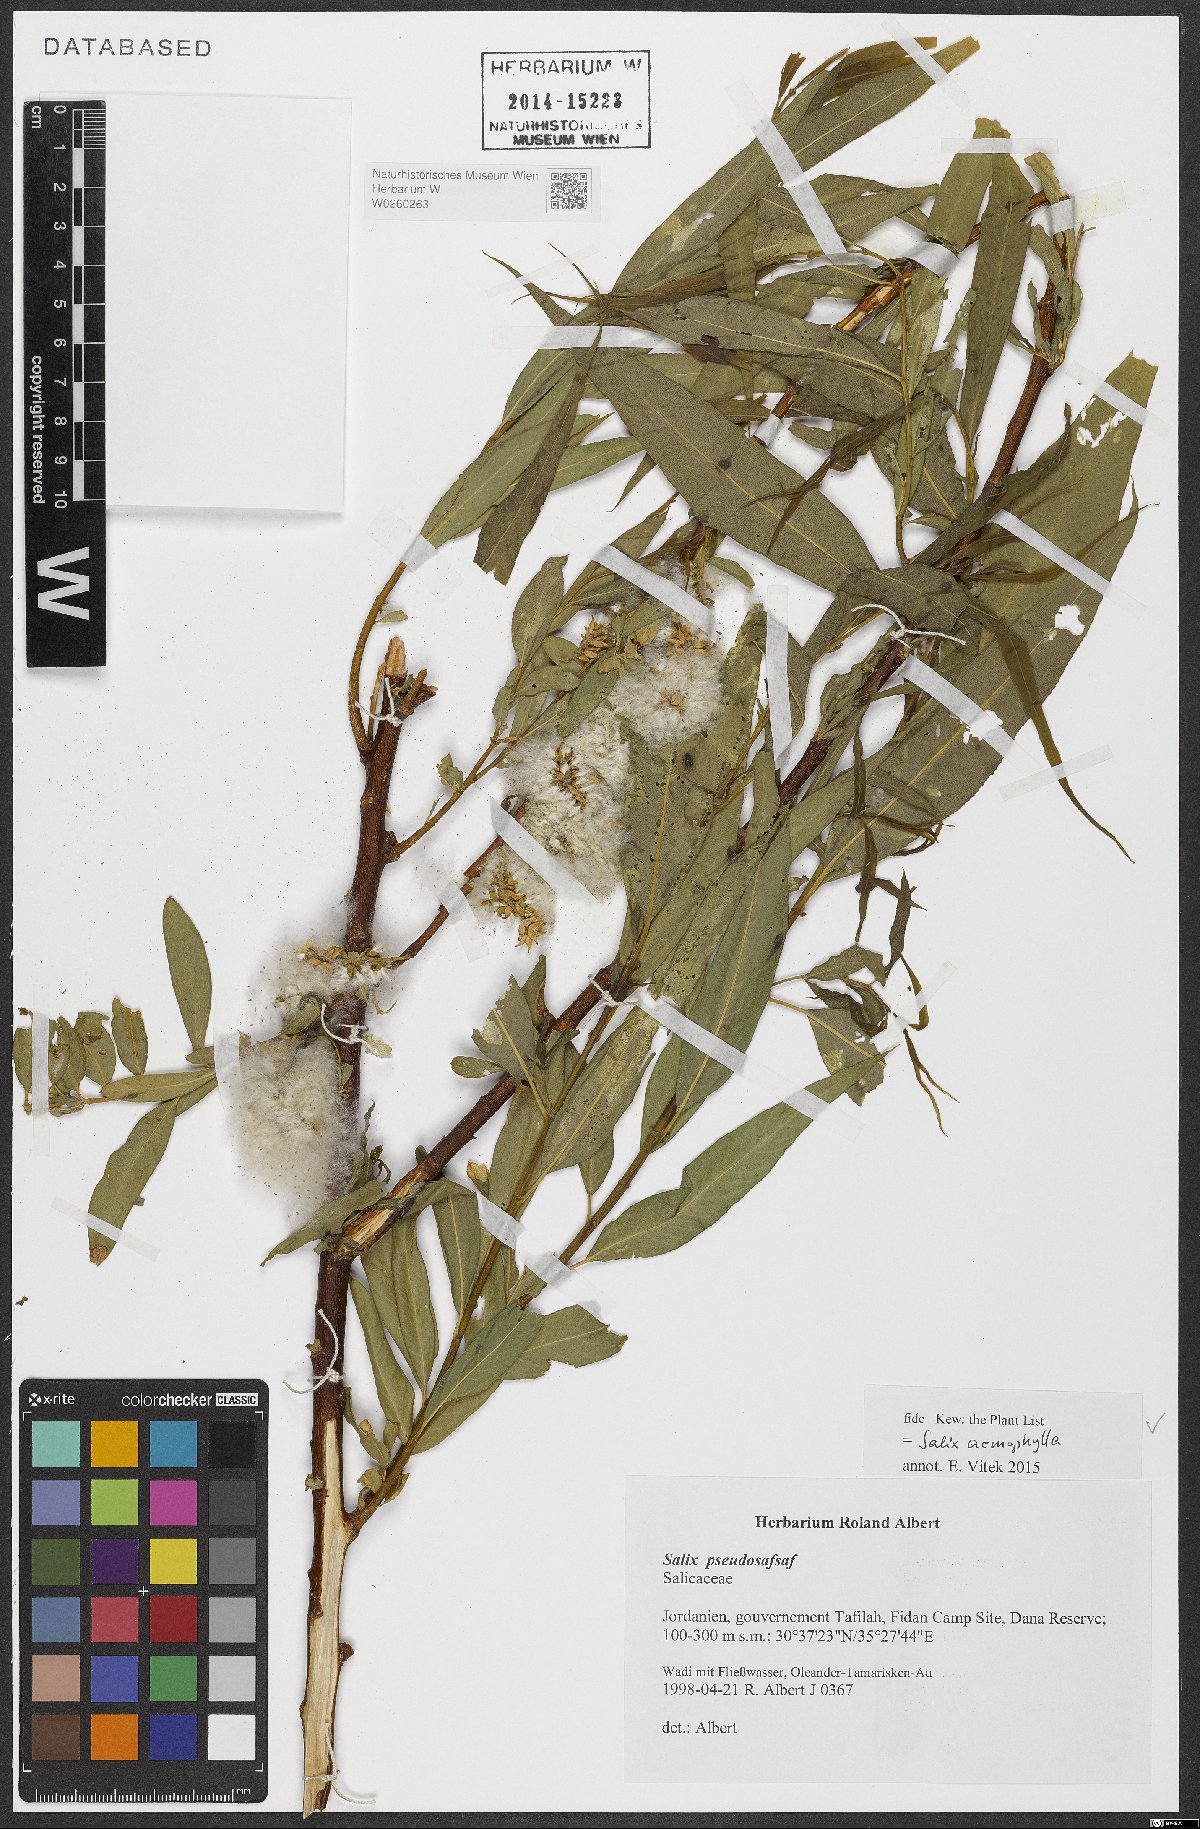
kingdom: Plantae
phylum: Tracheophyta
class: Magnoliopsida
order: Malpighiales
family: Salicaceae
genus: Salix
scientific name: Salix acmophylla
